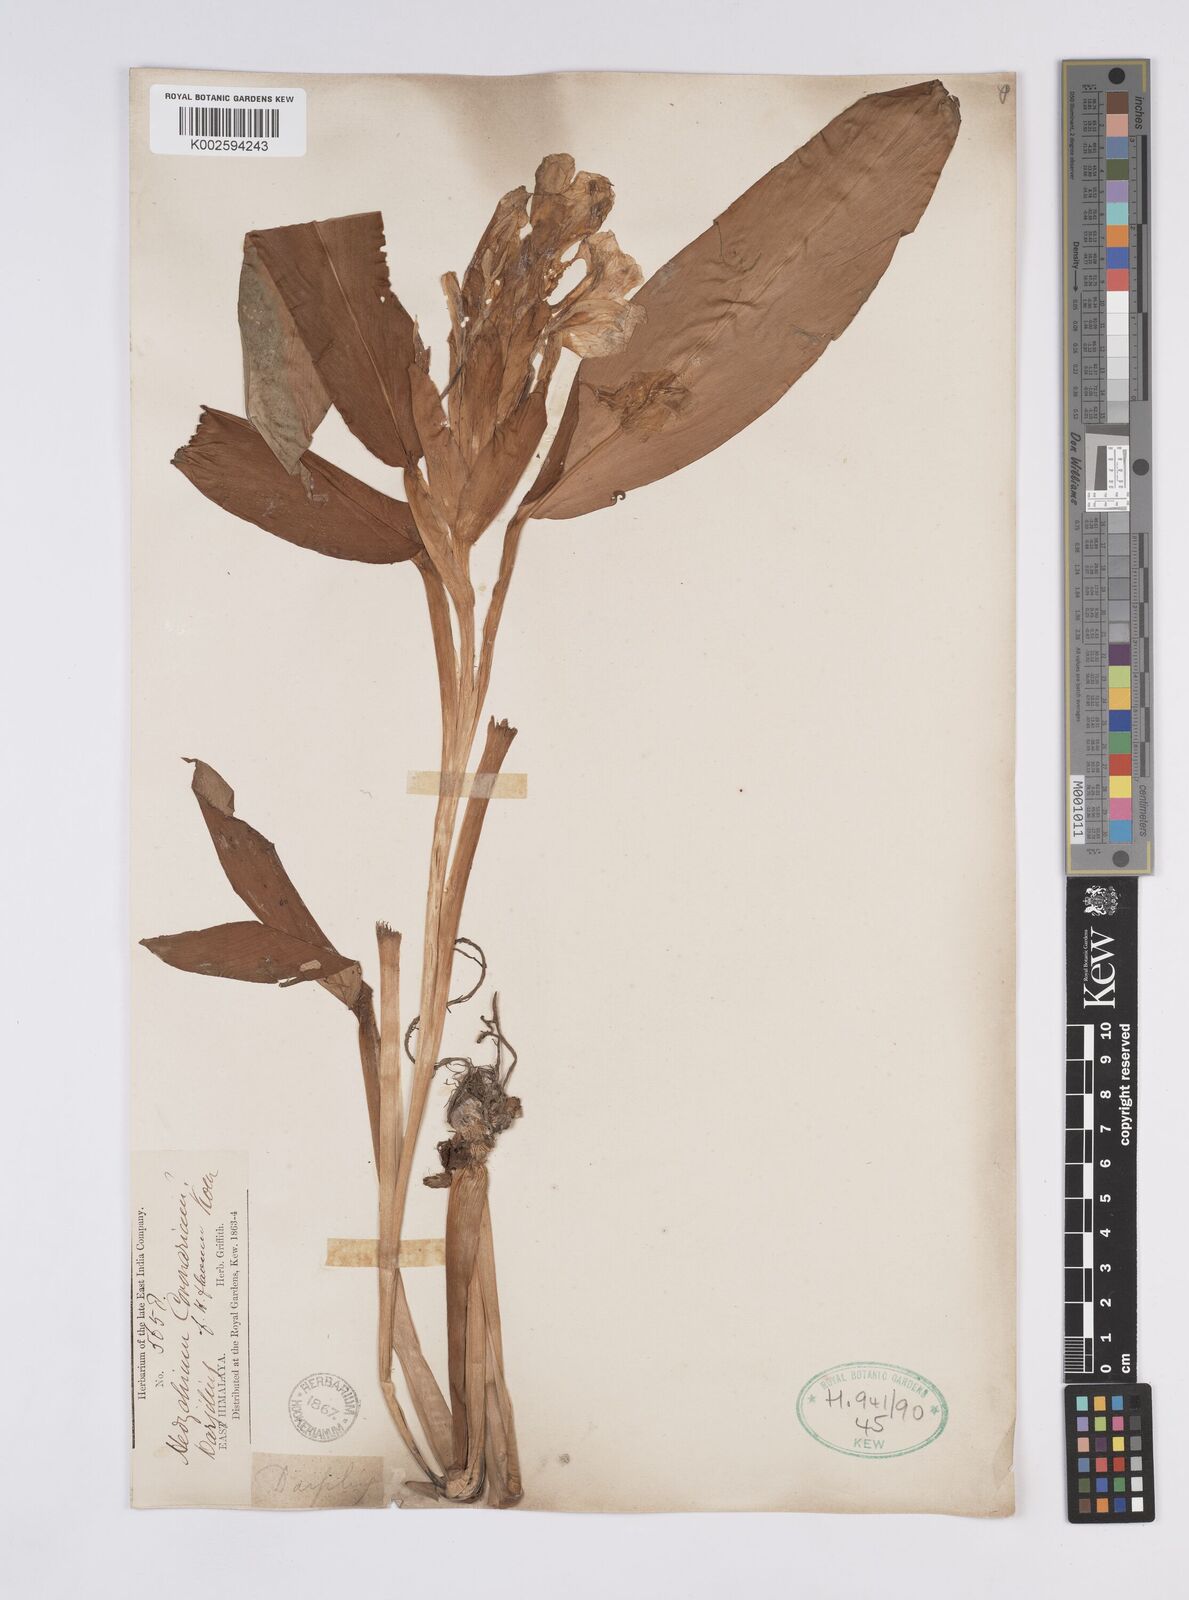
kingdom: Plantae
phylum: Tracheophyta
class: Liliopsida
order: Zingiberales
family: Zingiberaceae
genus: Hedychium
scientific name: Hedychium coronarium
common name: White garland-lily
